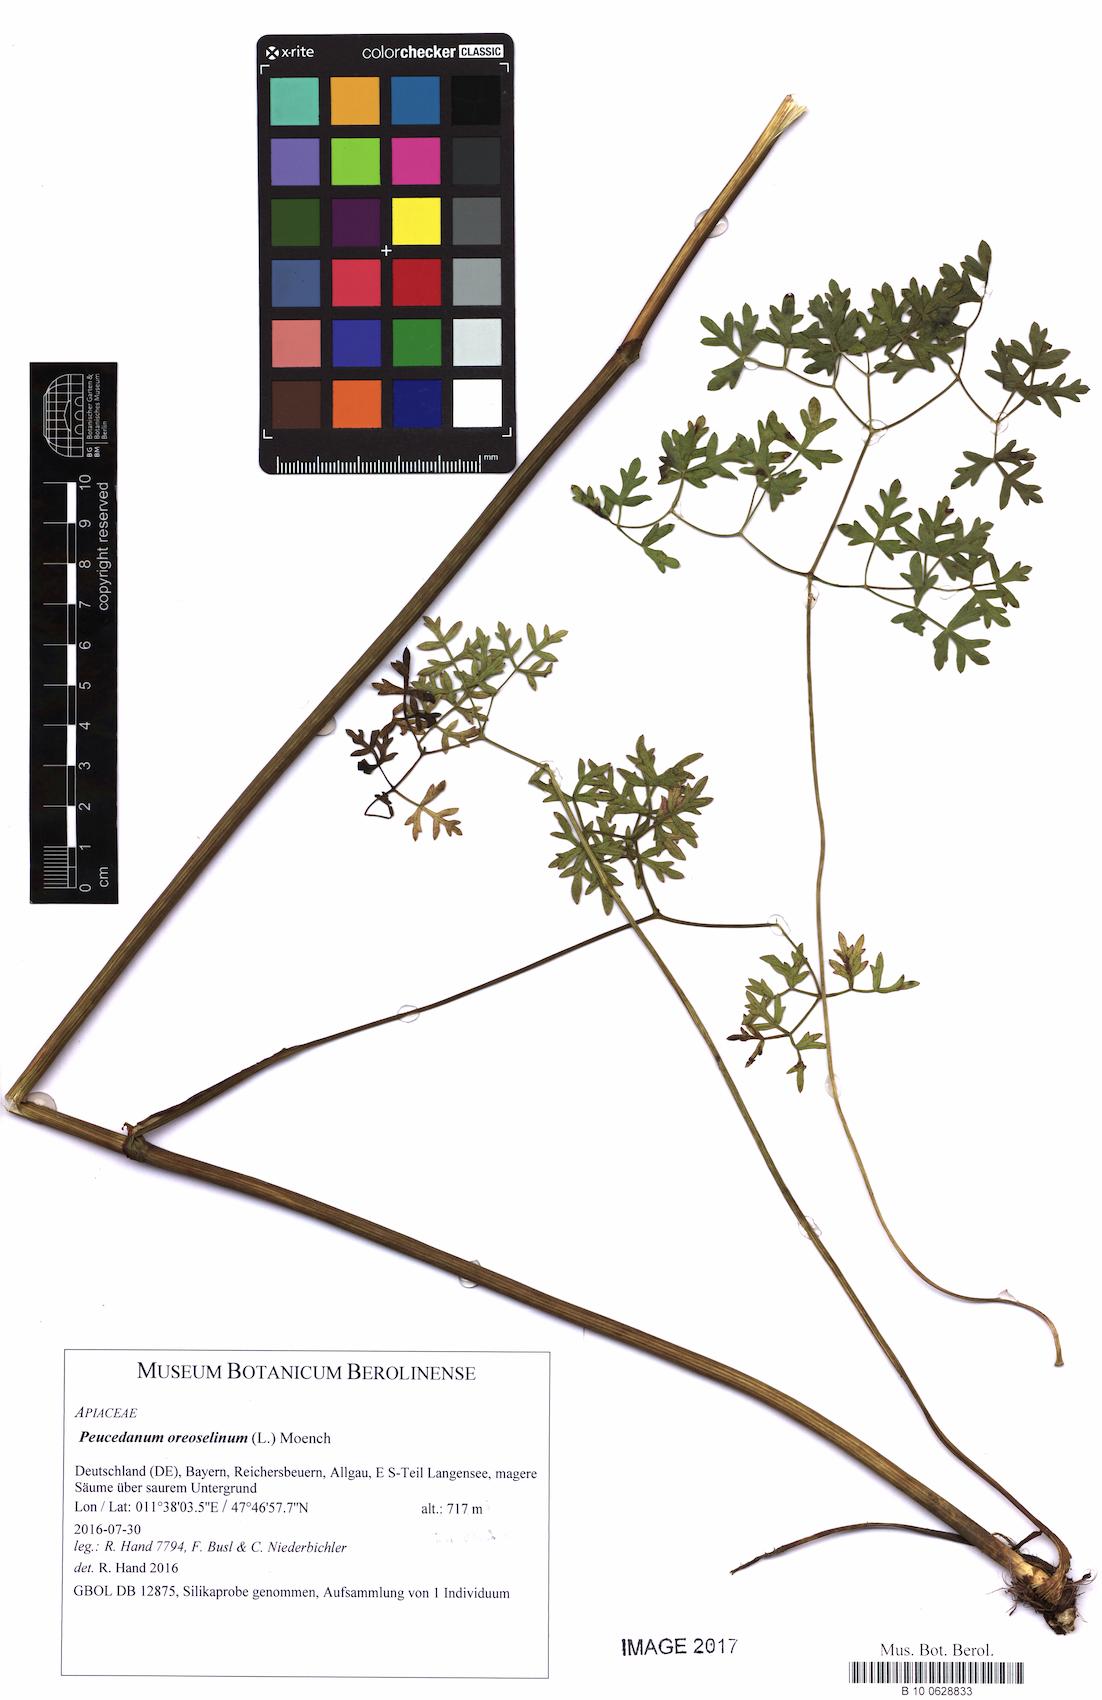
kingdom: Plantae
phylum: Tracheophyta
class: Magnoliopsida
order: Apiales
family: Apiaceae
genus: Oreoselinum
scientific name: Oreoselinum nigrum
